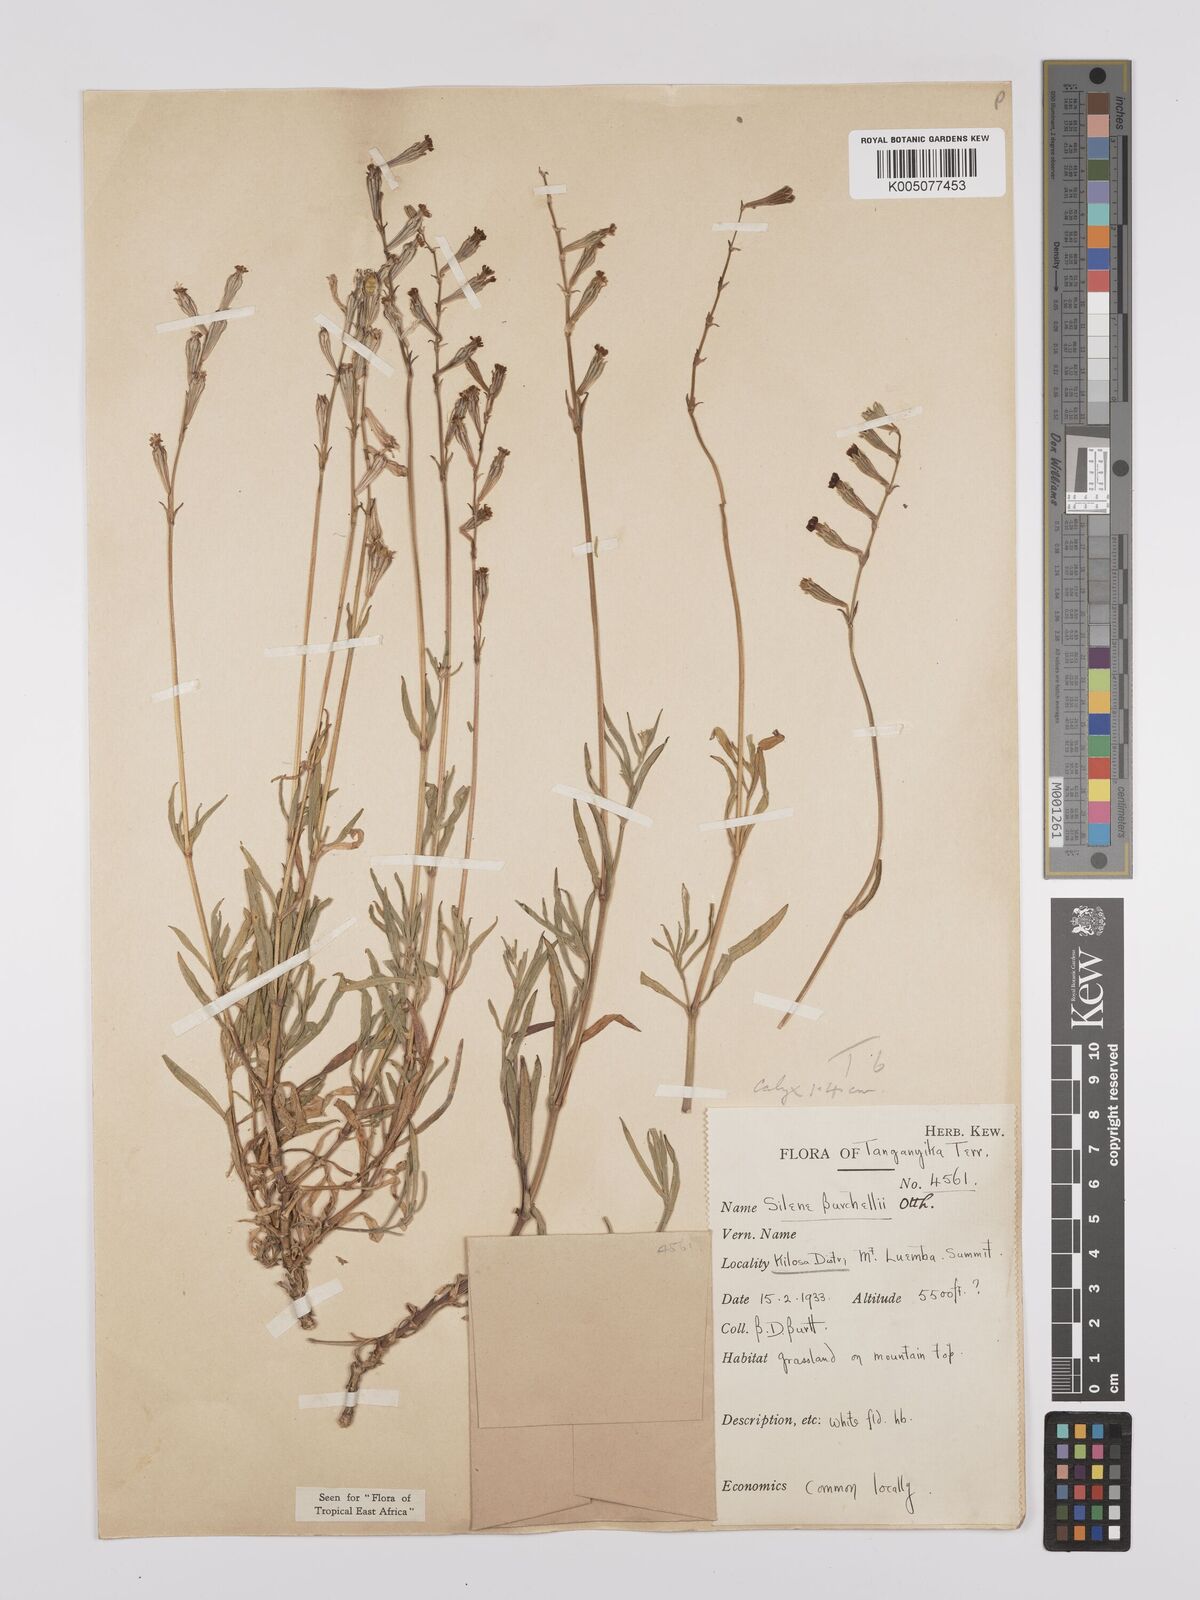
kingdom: Plantae
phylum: Tracheophyta
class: Magnoliopsida
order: Caryophyllales
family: Caryophyllaceae
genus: Silene
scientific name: Silene burchellii
